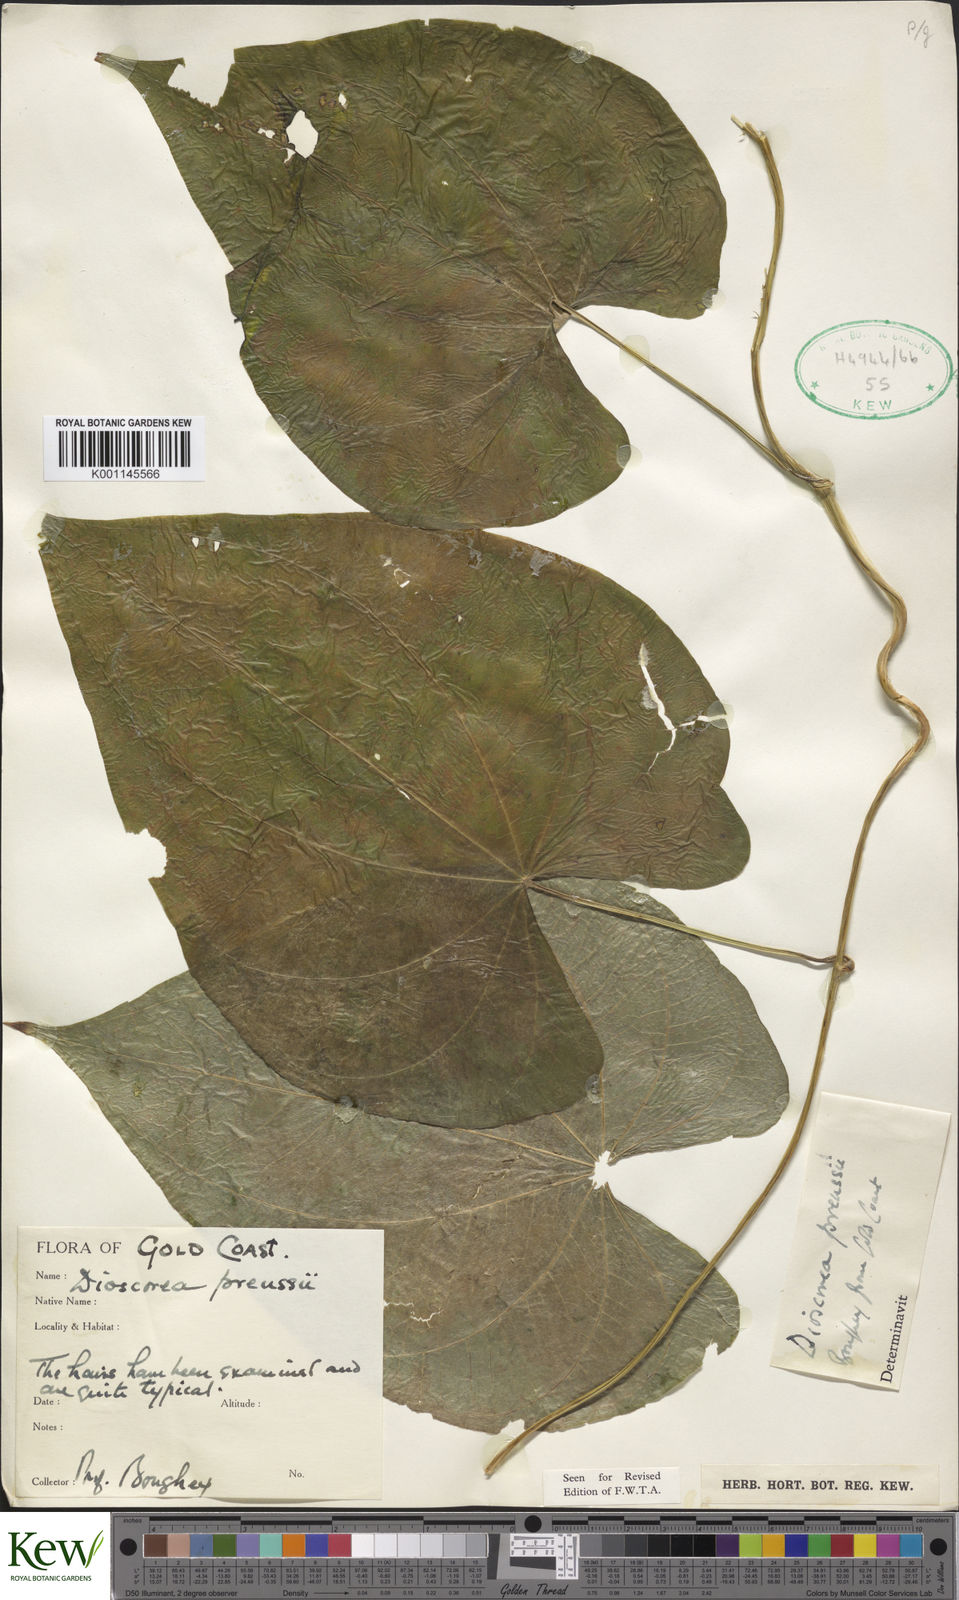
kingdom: Plantae
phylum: Tracheophyta
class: Liliopsida
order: Dioscoreales
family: Dioscoreaceae
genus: Dioscorea
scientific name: Dioscorea preussii
